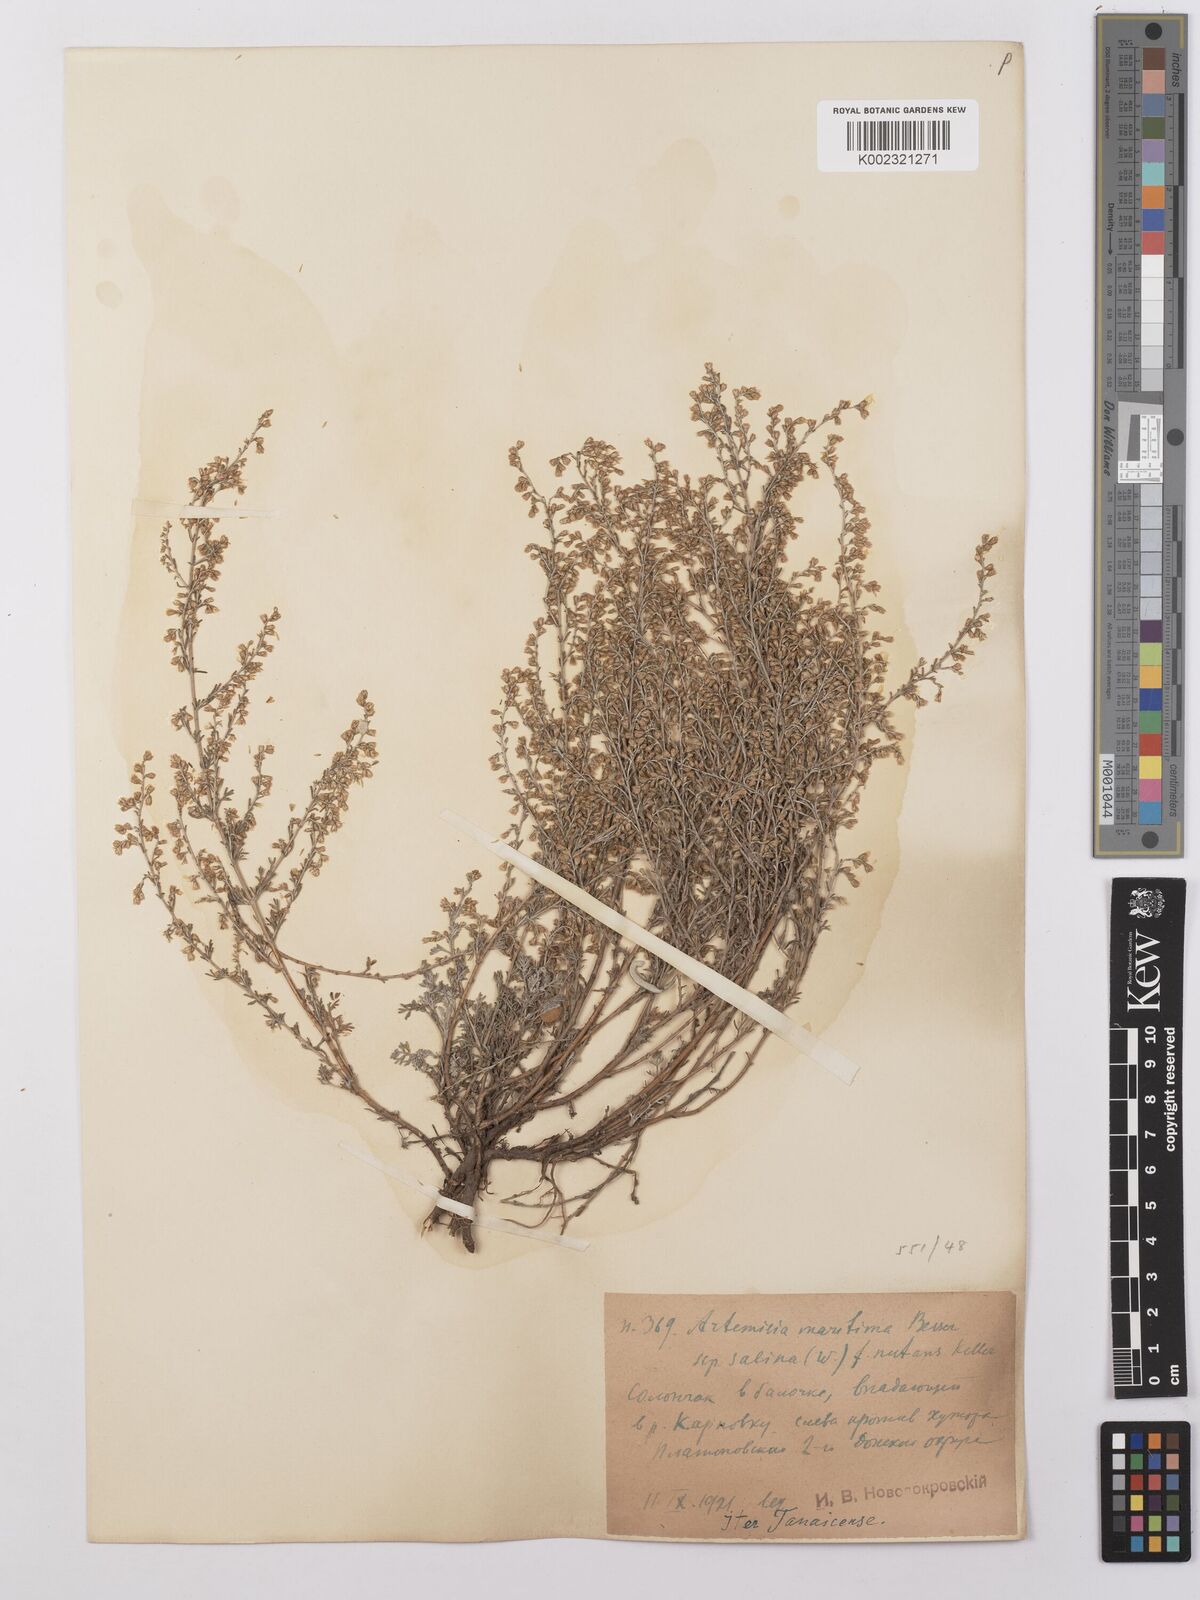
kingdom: Plantae
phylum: Tracheophyta
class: Magnoliopsida
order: Asterales
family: Asteraceae
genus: Artemisia
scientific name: Artemisia maritima
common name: Wormseed
